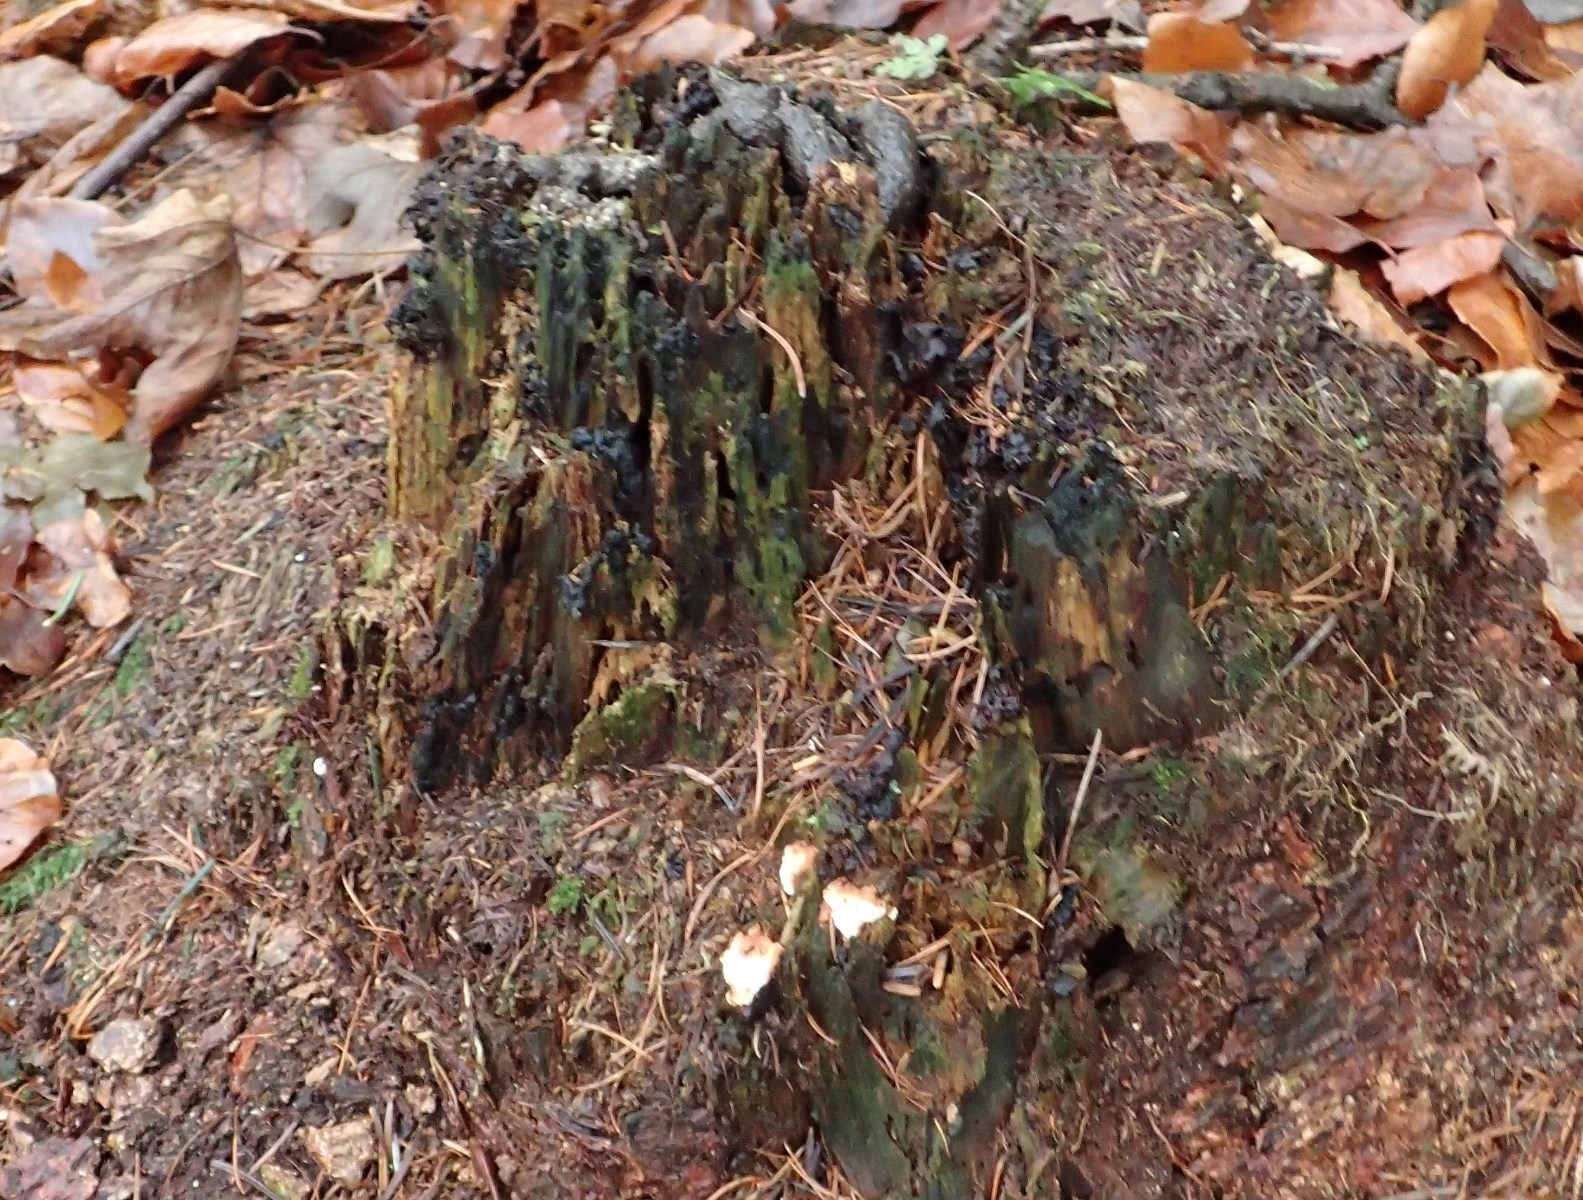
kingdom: Fungi
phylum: Basidiomycota
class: Agaricomycetes
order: Russulales
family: Bondarzewiaceae
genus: Heterobasidion
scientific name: Heterobasidion annosum
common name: almindelig rodfordærver
